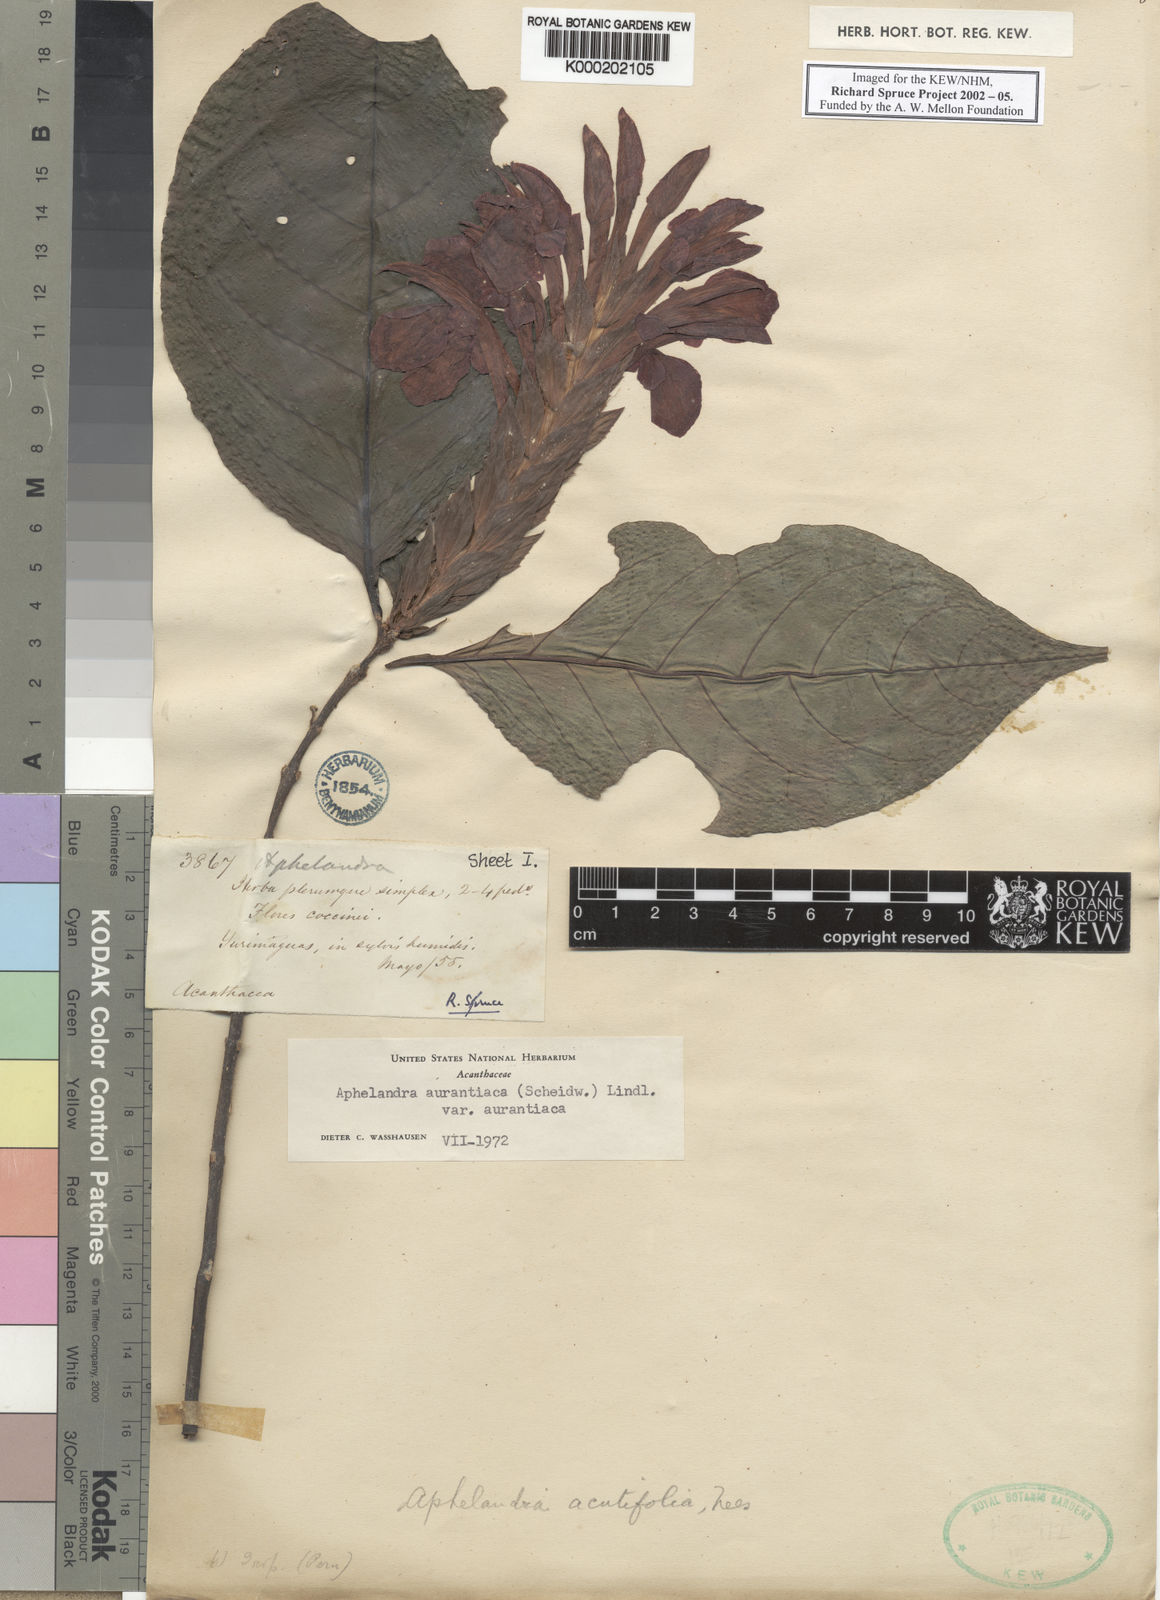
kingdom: Plantae
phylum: Tracheophyta
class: Magnoliopsida
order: Lamiales
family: Acanthaceae
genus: Aphelandra
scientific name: Aphelandra
